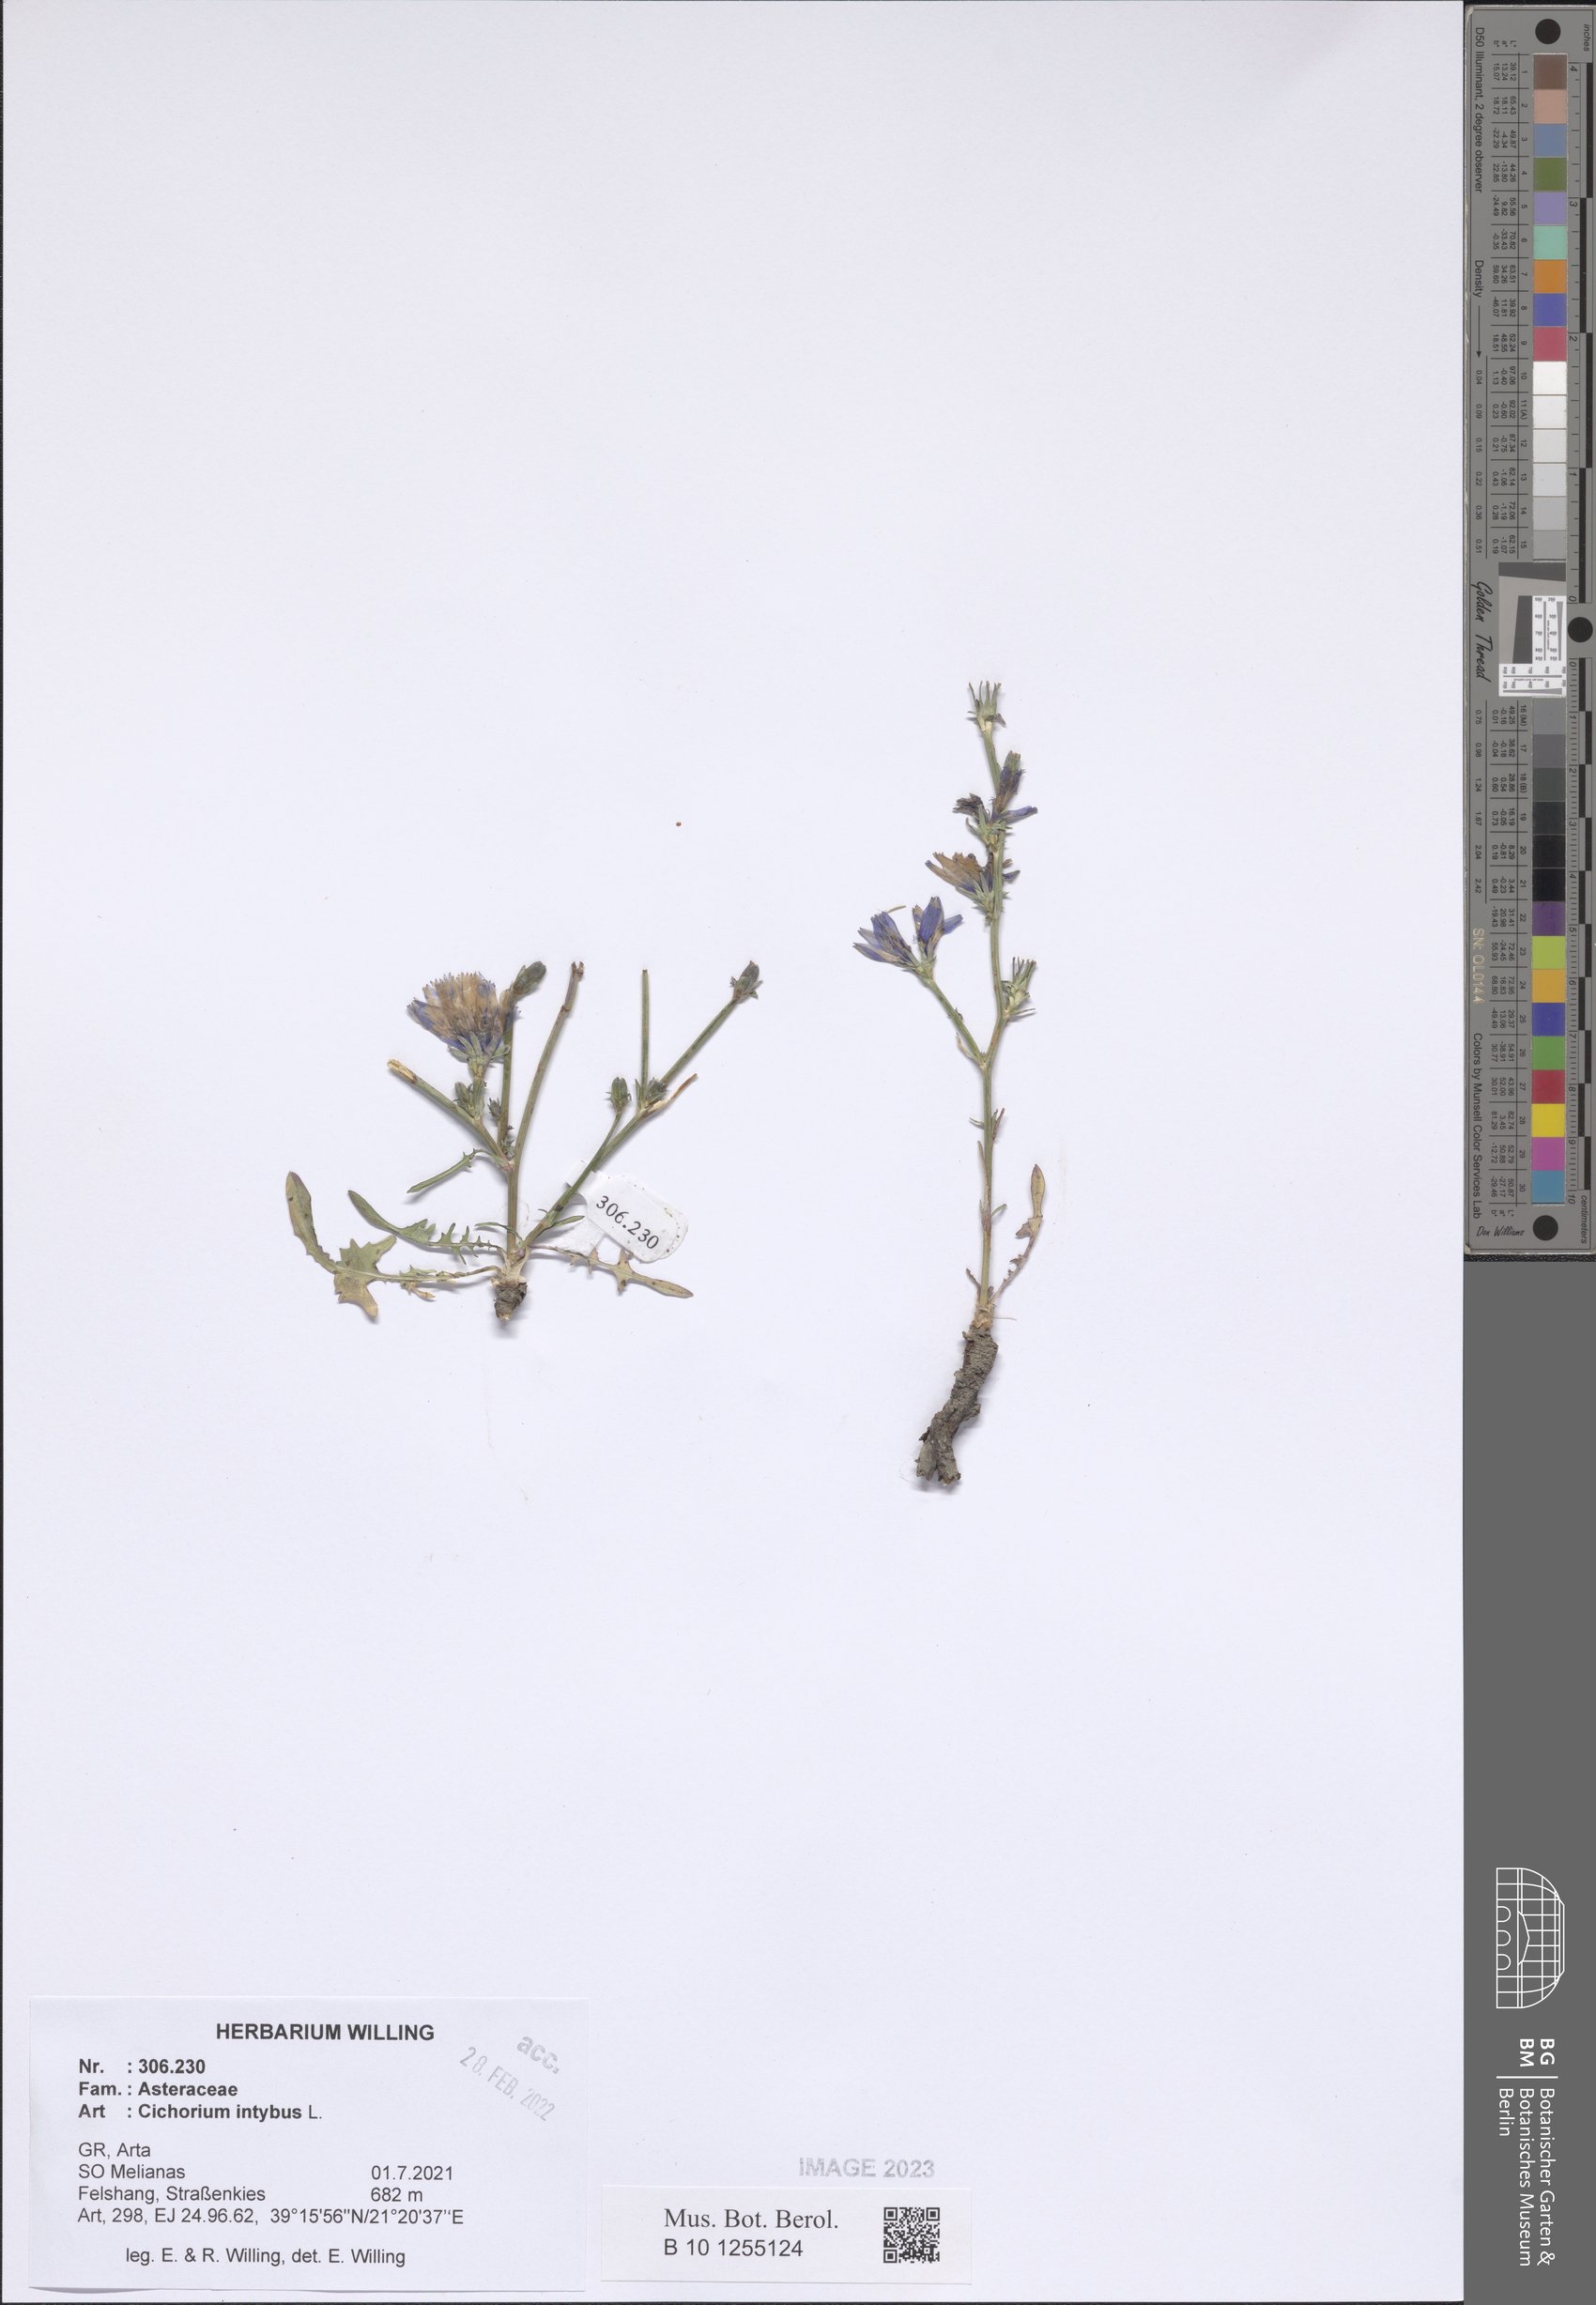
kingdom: Plantae
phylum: Tracheophyta
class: Magnoliopsida
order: Asterales
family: Asteraceae
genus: Cichorium
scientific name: Cichorium intybus
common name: Chicory
